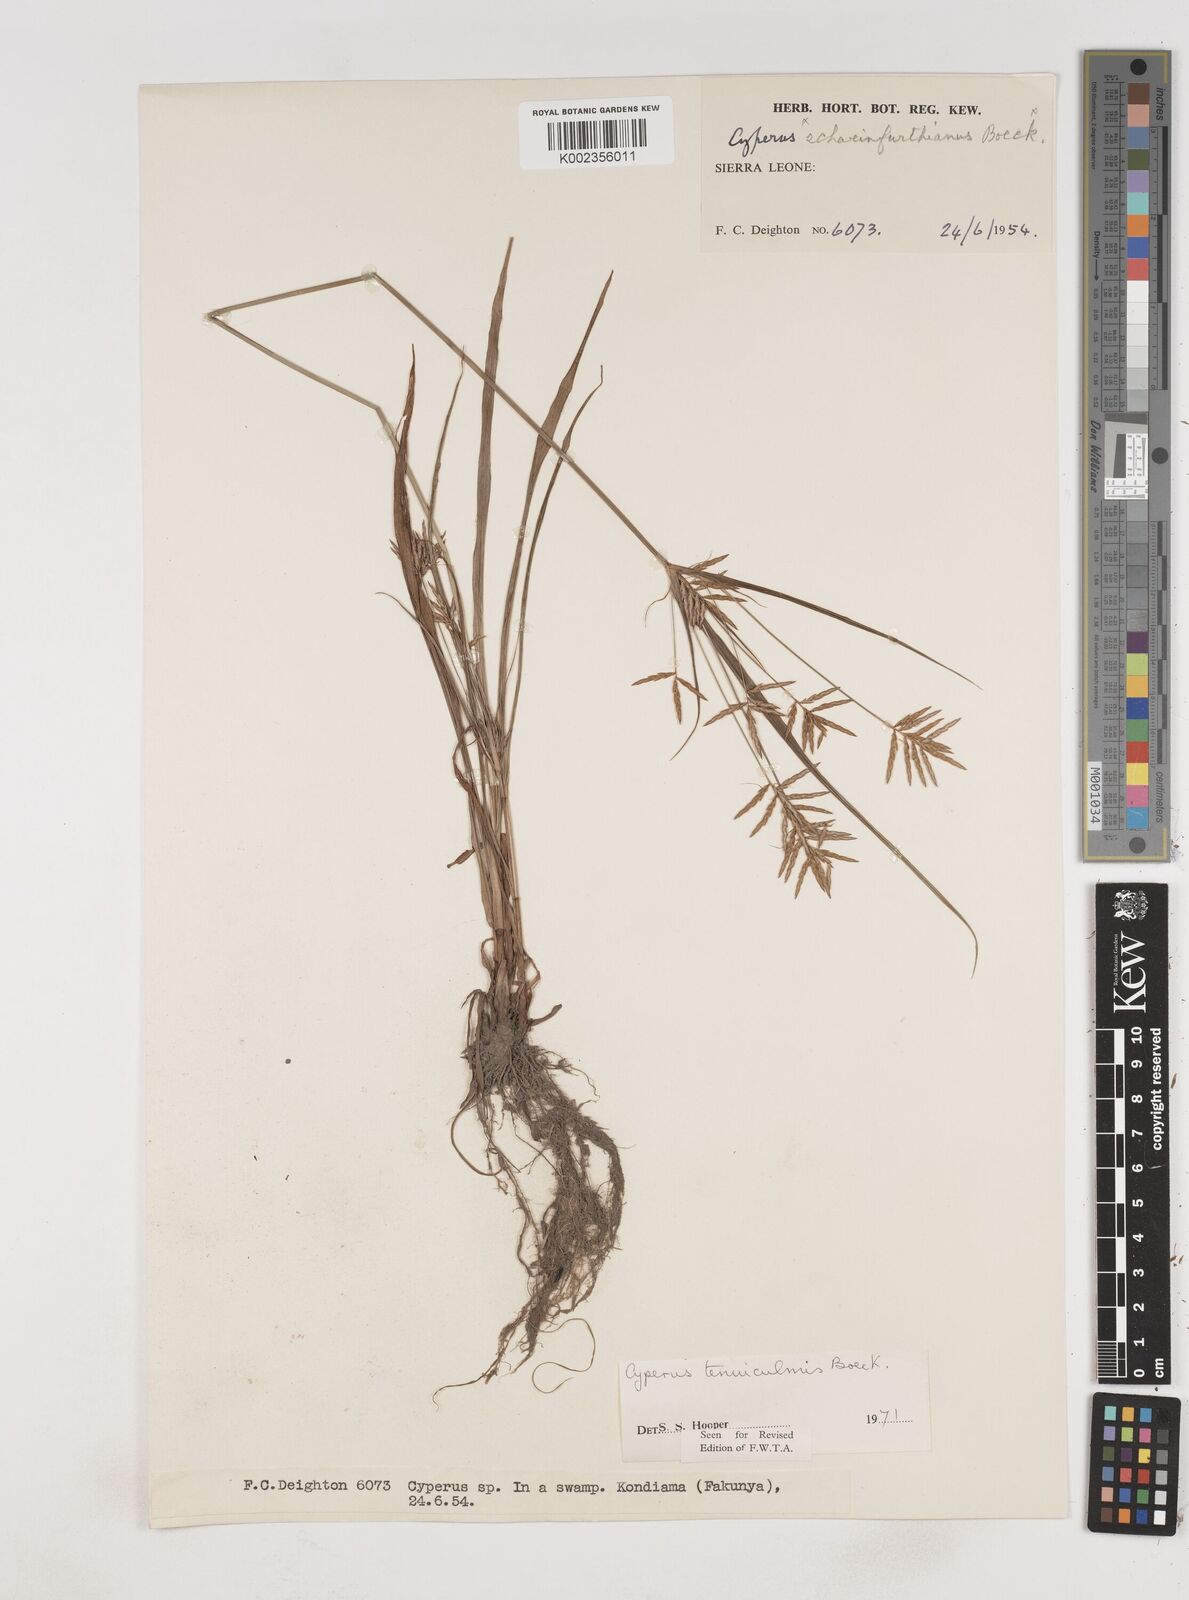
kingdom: Plantae
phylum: Tracheophyta
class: Liliopsida
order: Poales
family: Cyperaceae
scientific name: Cyperaceae
